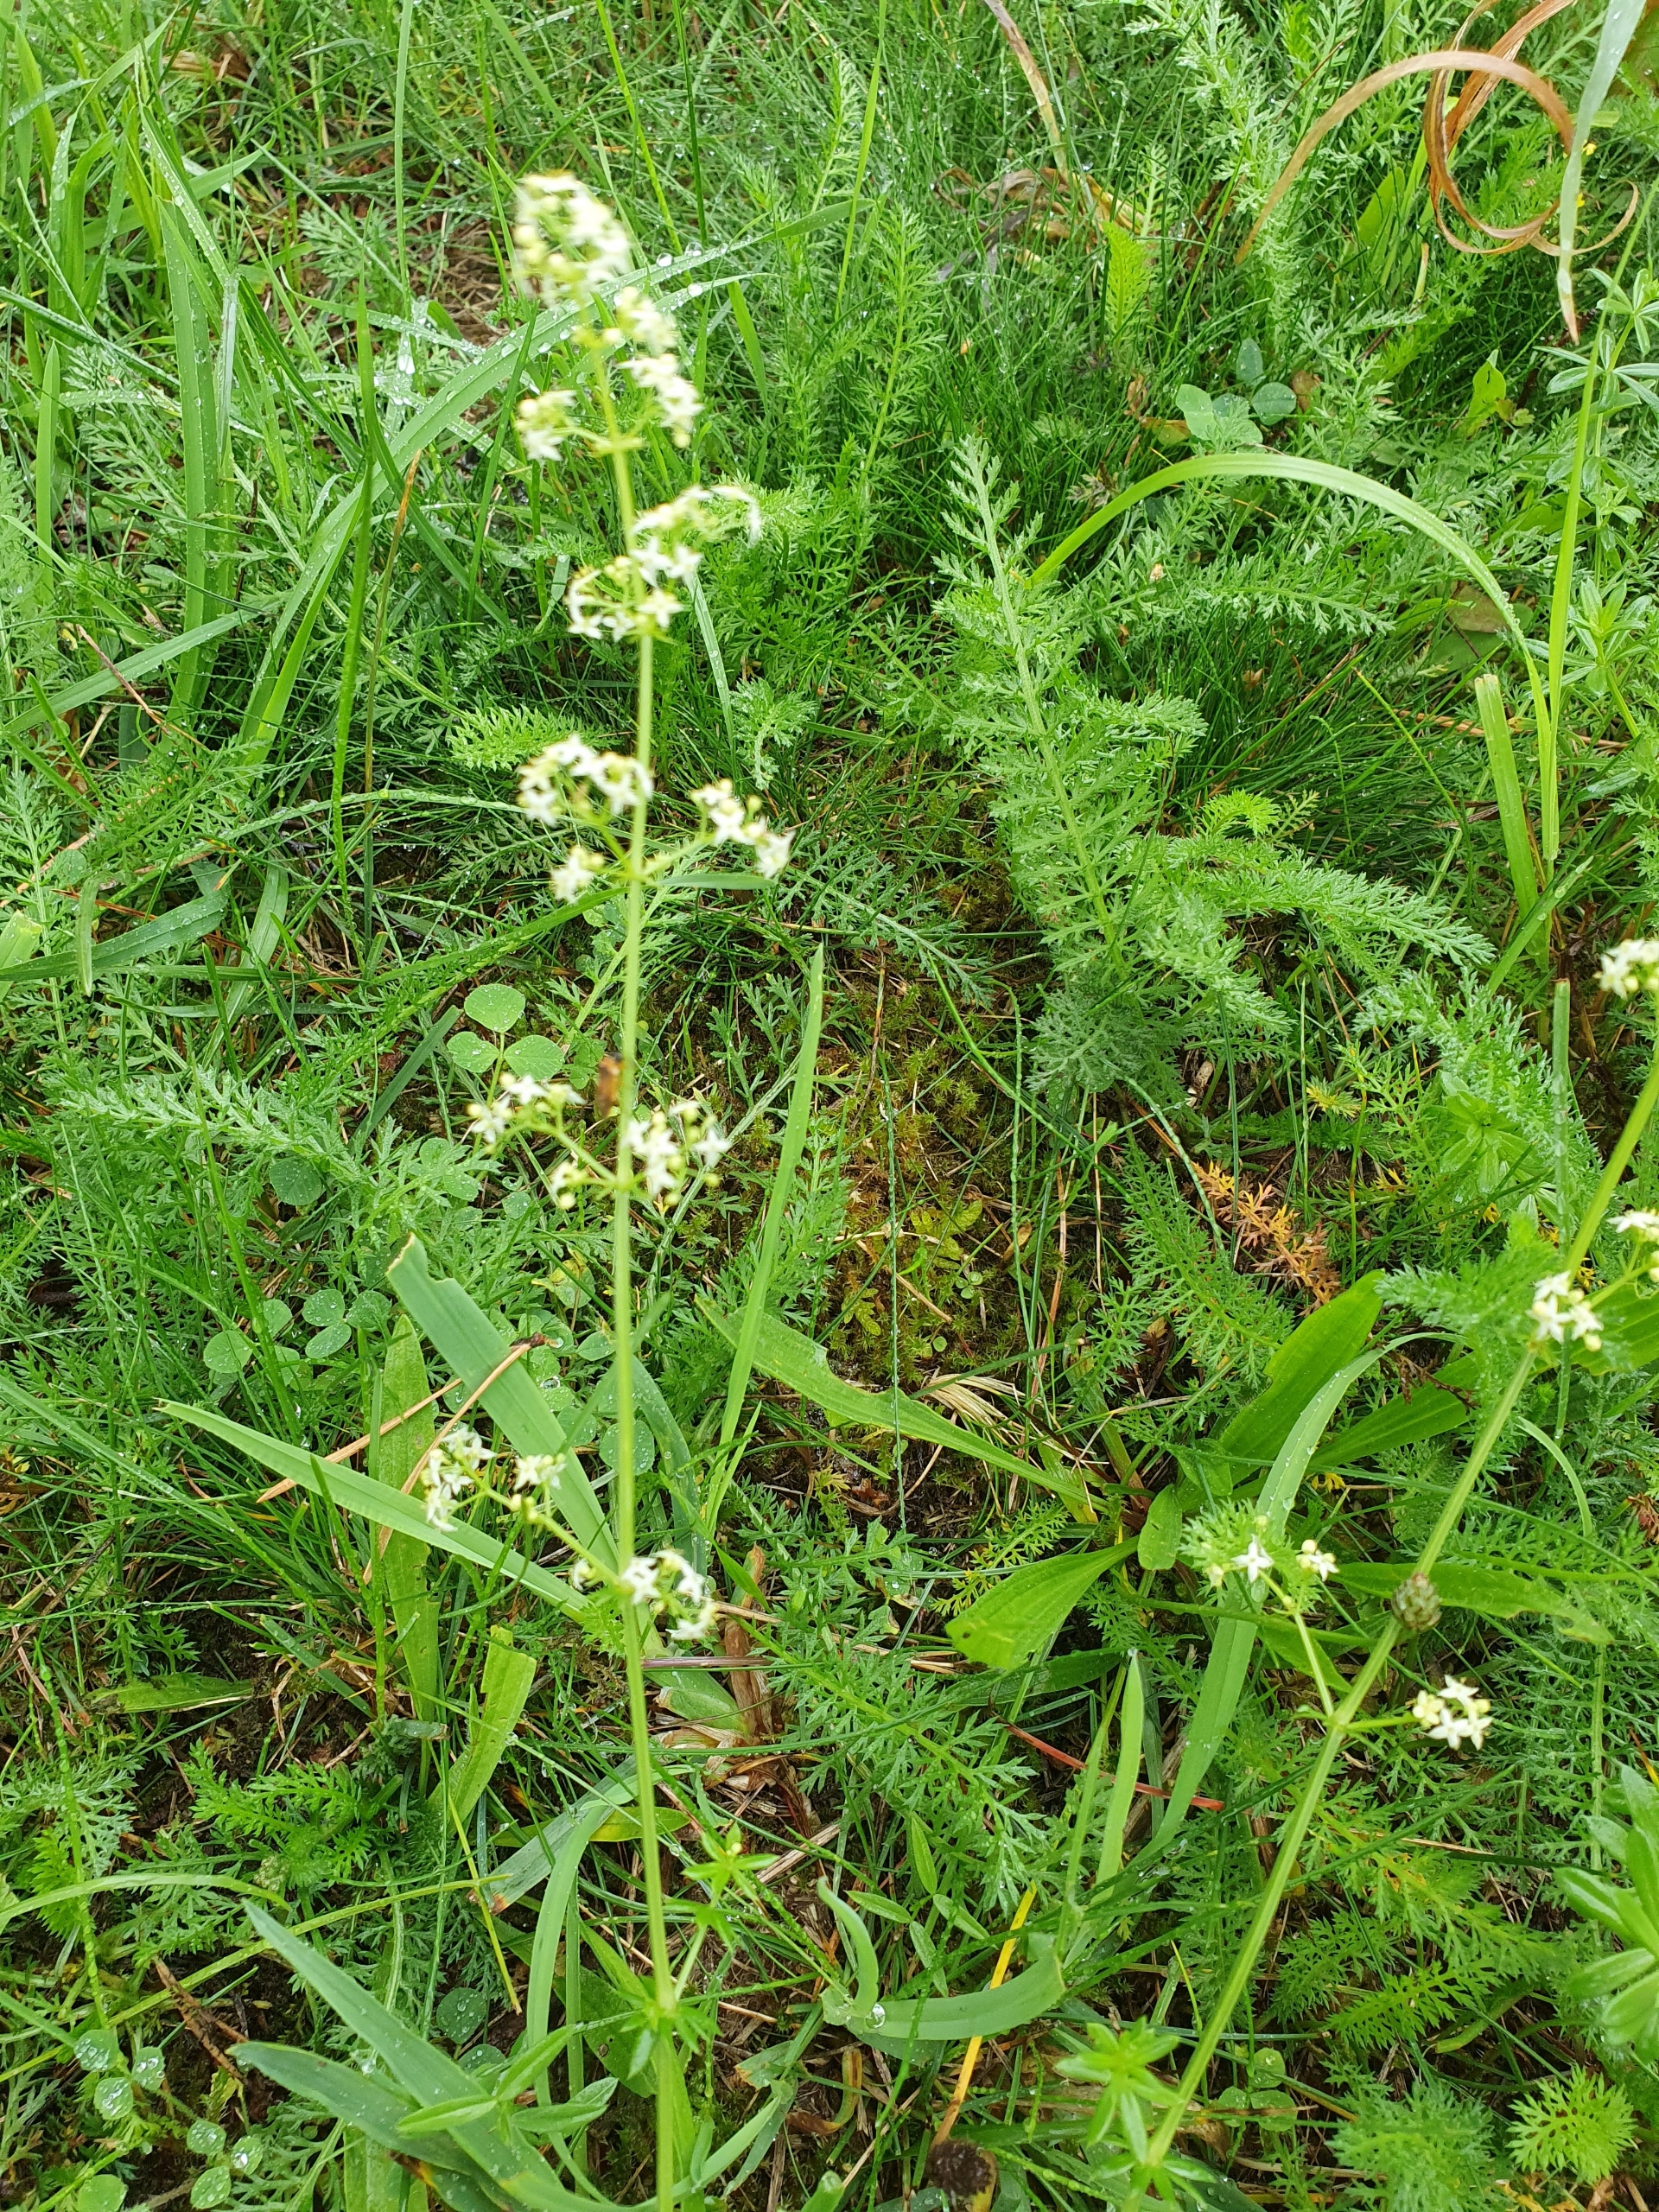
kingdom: Plantae
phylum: Tracheophyta
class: Magnoliopsida
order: Gentianales
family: Rubiaceae
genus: Galium
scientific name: Galium mollugo
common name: Hvid snerre
